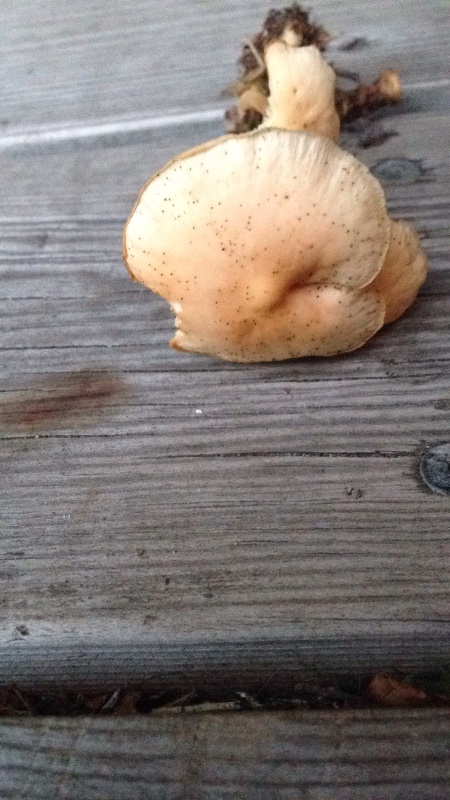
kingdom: Fungi
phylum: Basidiomycota
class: Agaricomycetes
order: Agaricales
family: Omphalotaceae
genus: Gymnopus
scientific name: Gymnopus aquosus
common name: bleg fladhat
